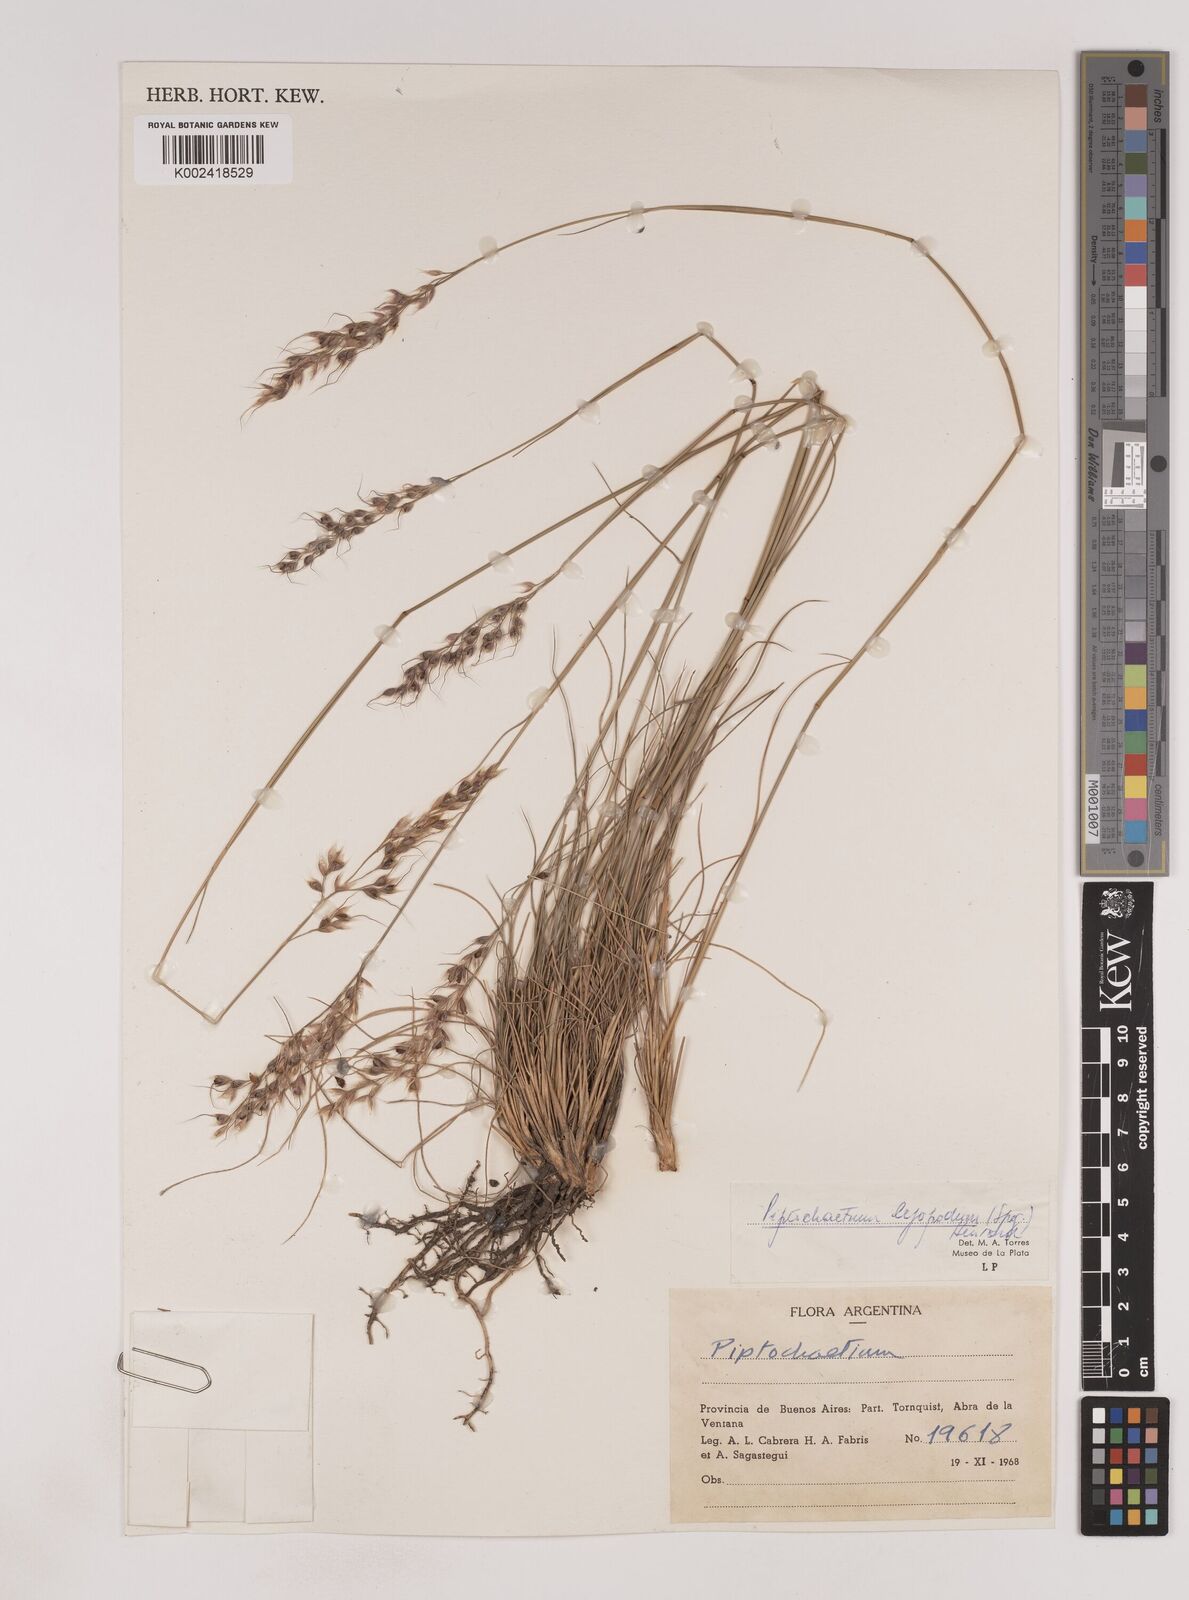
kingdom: Plantae
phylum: Tracheophyta
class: Liliopsida
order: Poales
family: Poaceae
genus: Piptochaetium
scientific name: Piptochaetium leiopodum
